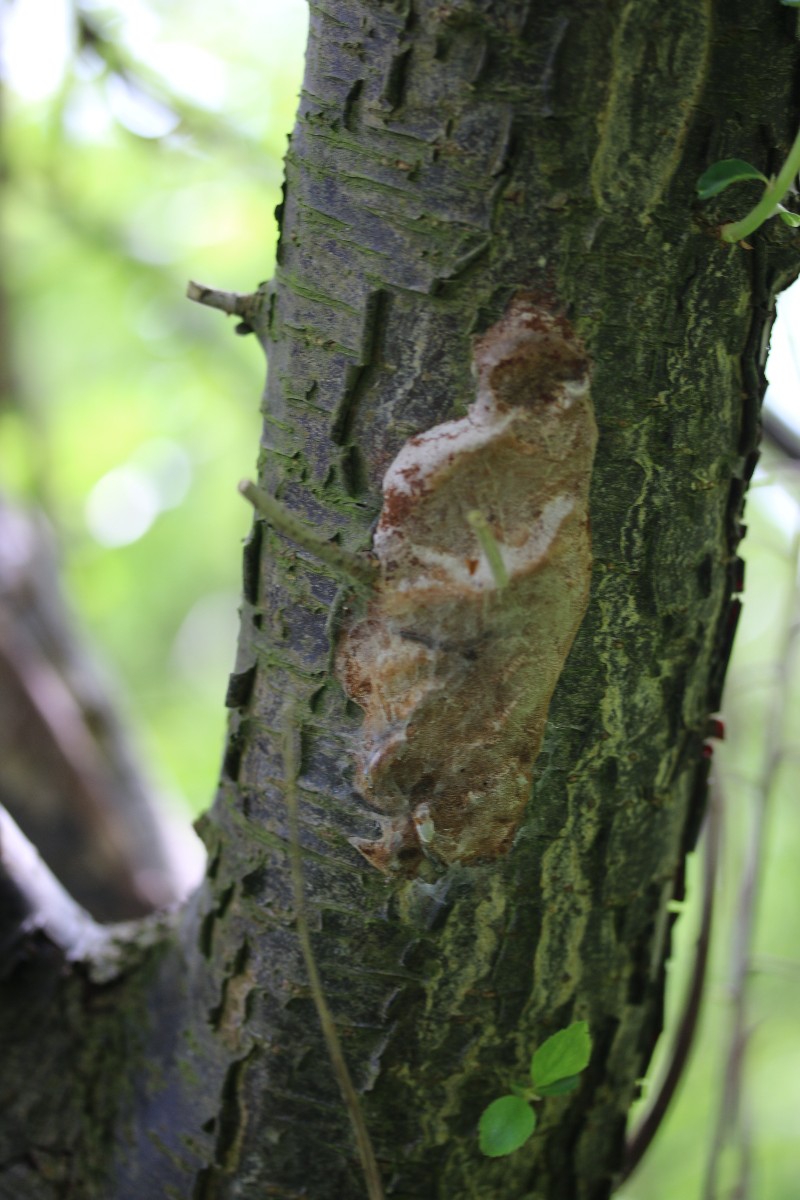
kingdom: Fungi
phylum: Basidiomycota
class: Agaricomycetes
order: Hymenochaetales
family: Hymenochaetaceae
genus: Phellinus
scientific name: Phellinus pomaceus
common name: blomme-ildporesvamp
